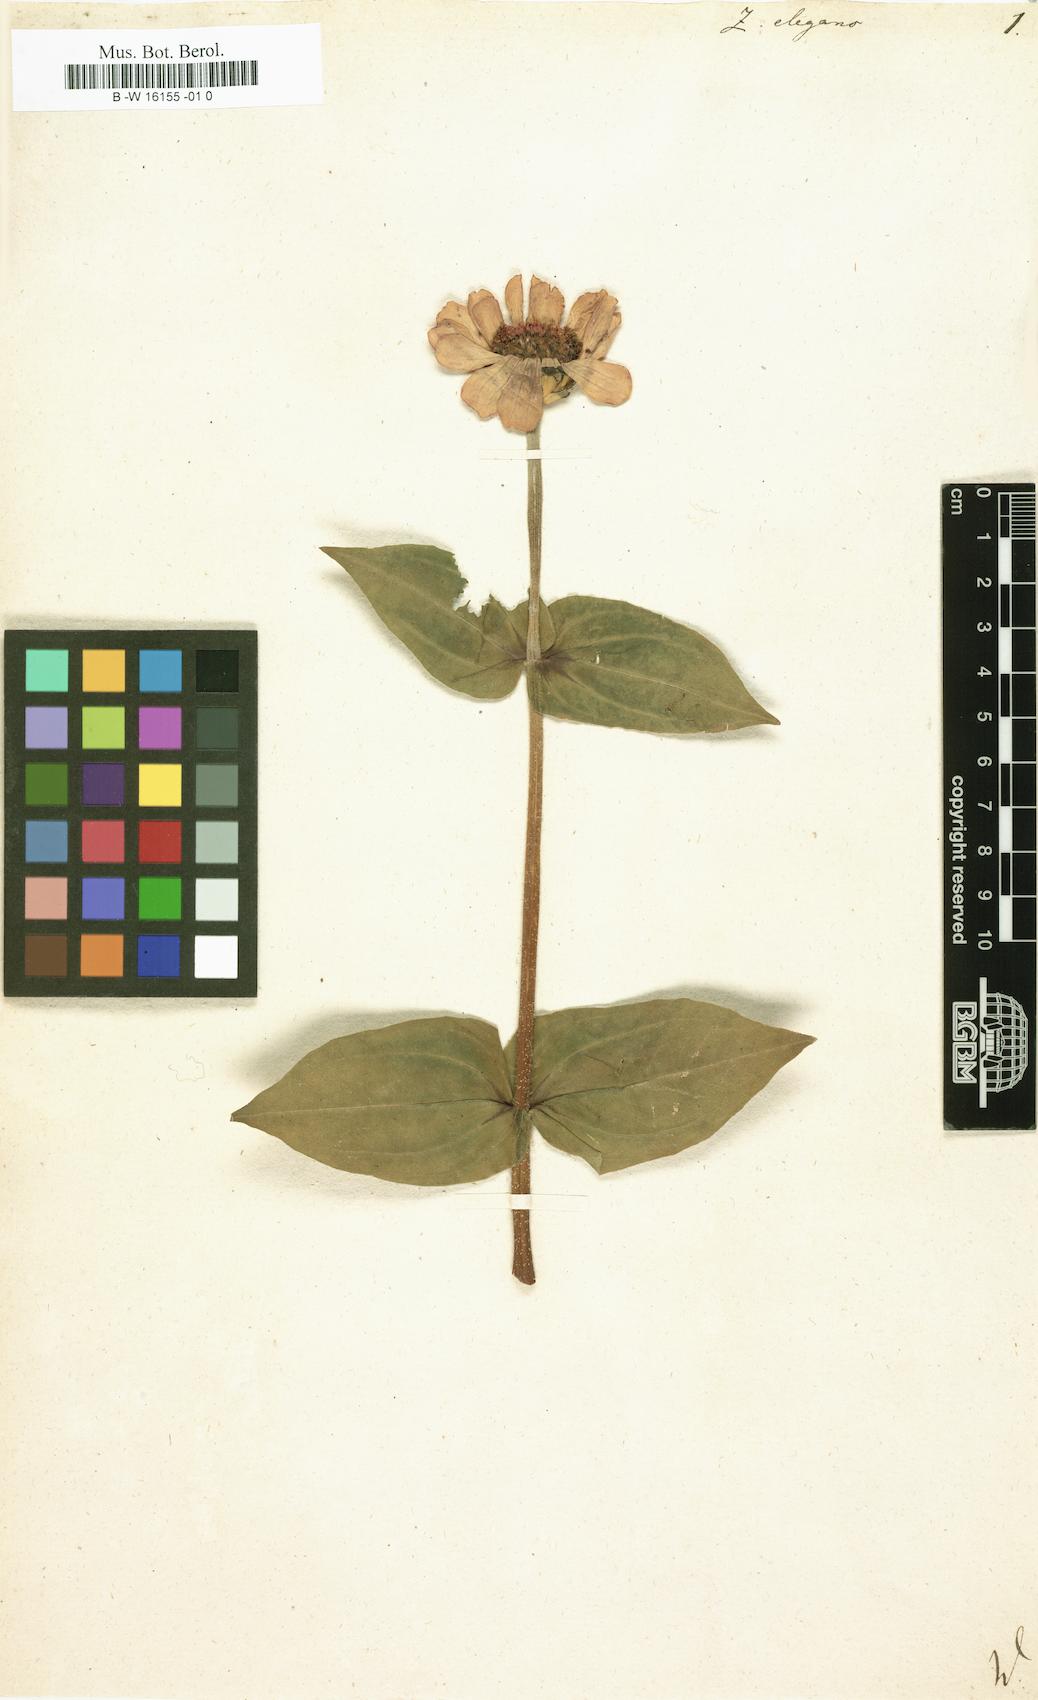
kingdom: Plantae
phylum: Tracheophyta
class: Magnoliopsida
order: Asterales
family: Asteraceae
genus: Zinnia
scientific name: Zinnia elegans
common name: Youth-and-age
